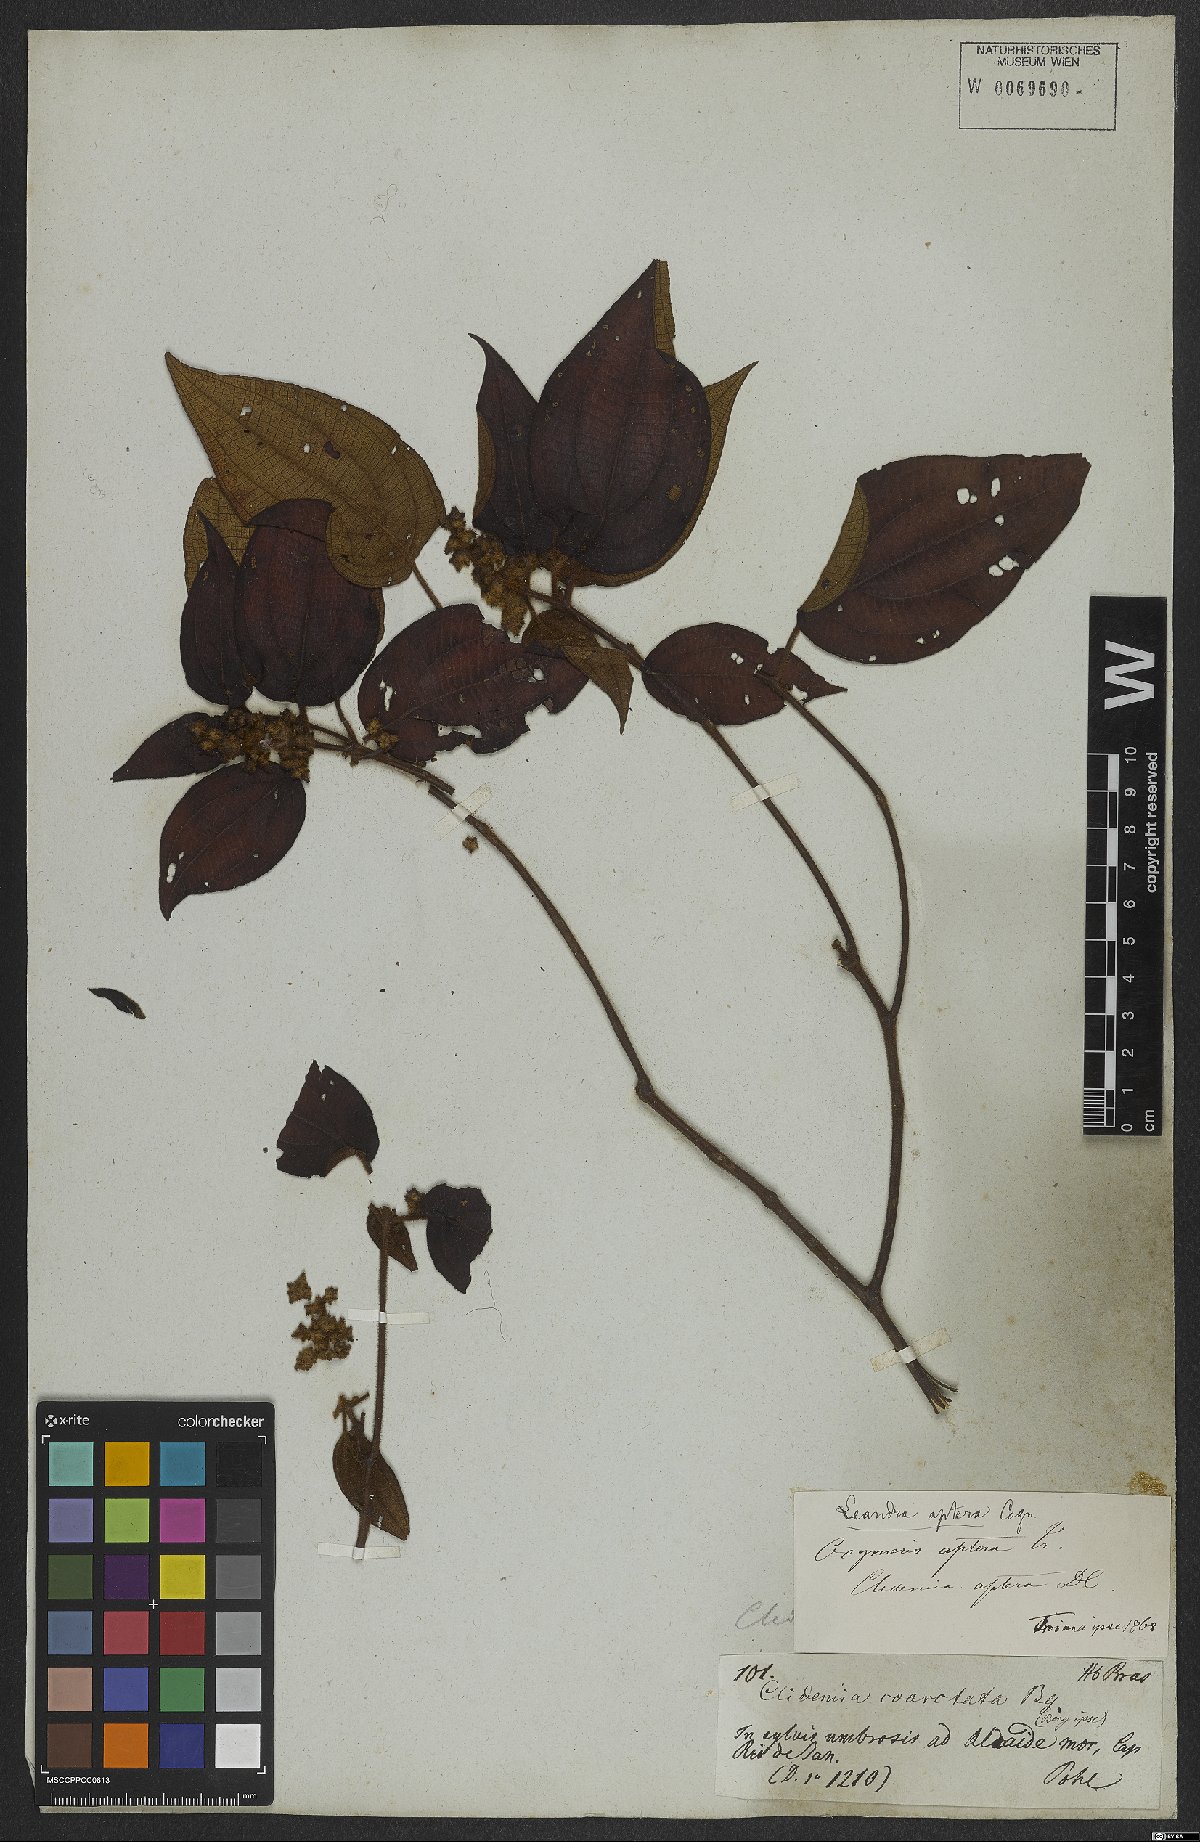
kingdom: Plantae
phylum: Tracheophyta
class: Magnoliopsida
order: Myrtales
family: Melastomataceae
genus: Miconia
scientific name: Miconia aptera
